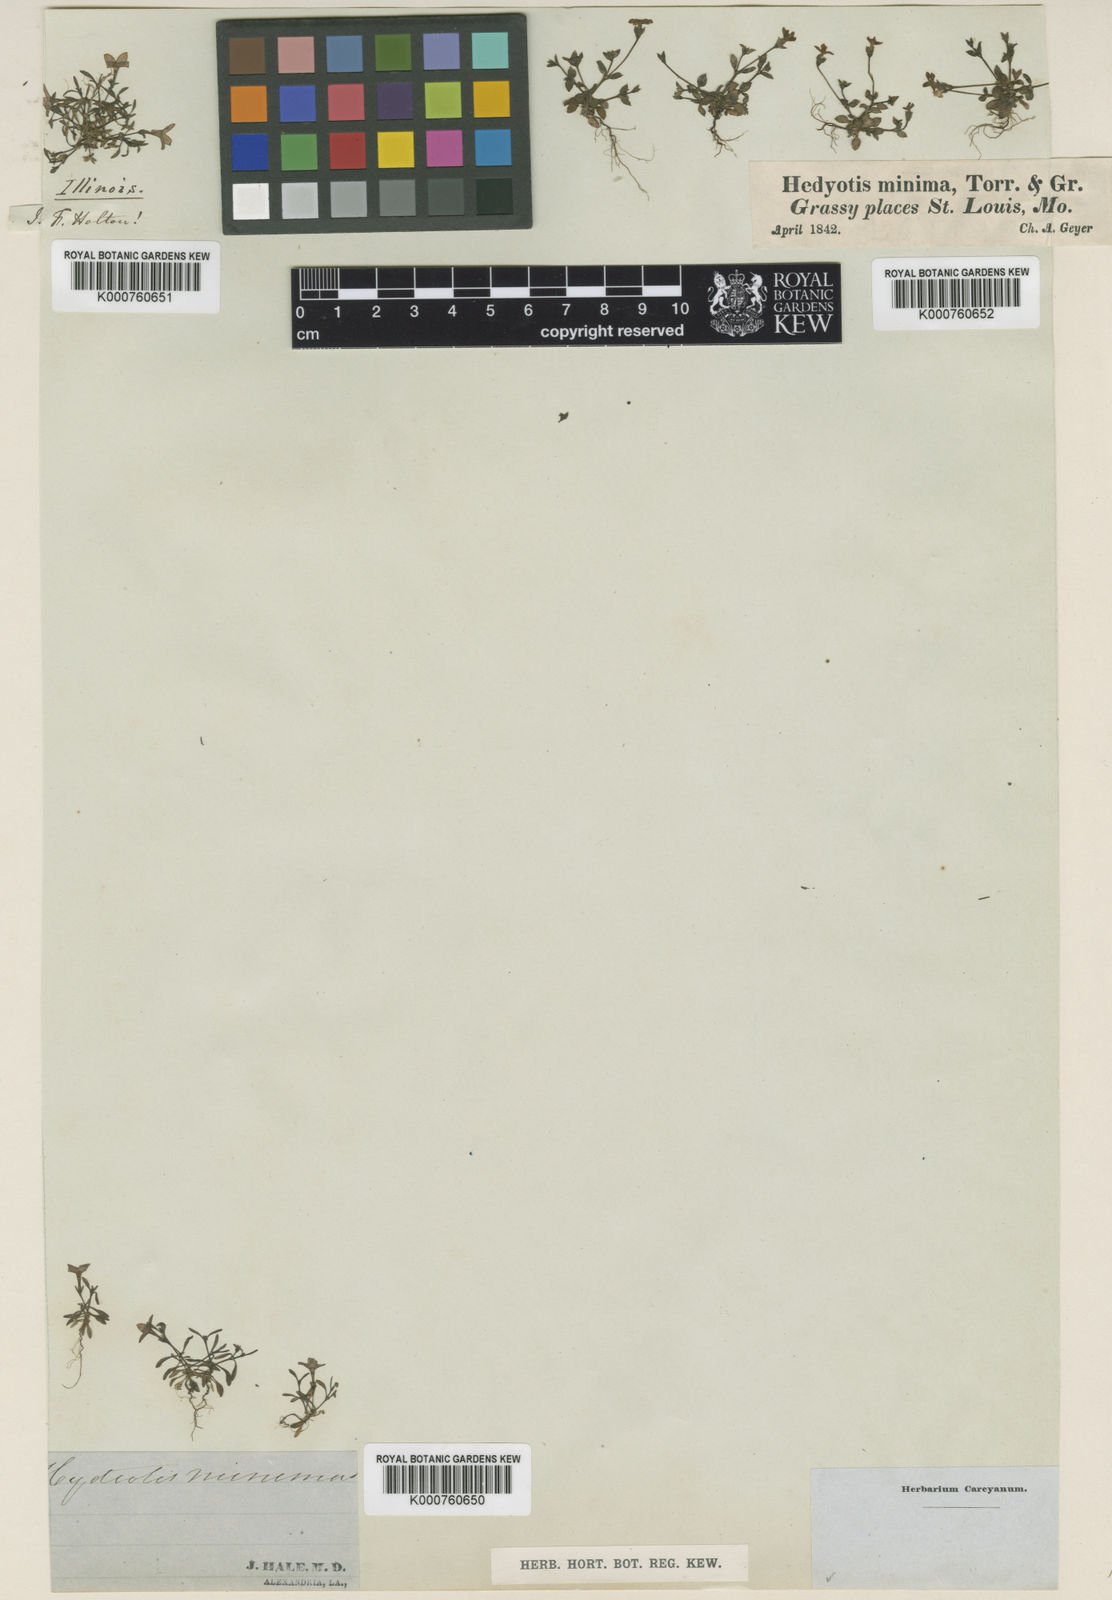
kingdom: Plantae
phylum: Tracheophyta
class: Magnoliopsida
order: Gentianales
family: Rubiaceae
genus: Houstonia
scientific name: Houstonia
